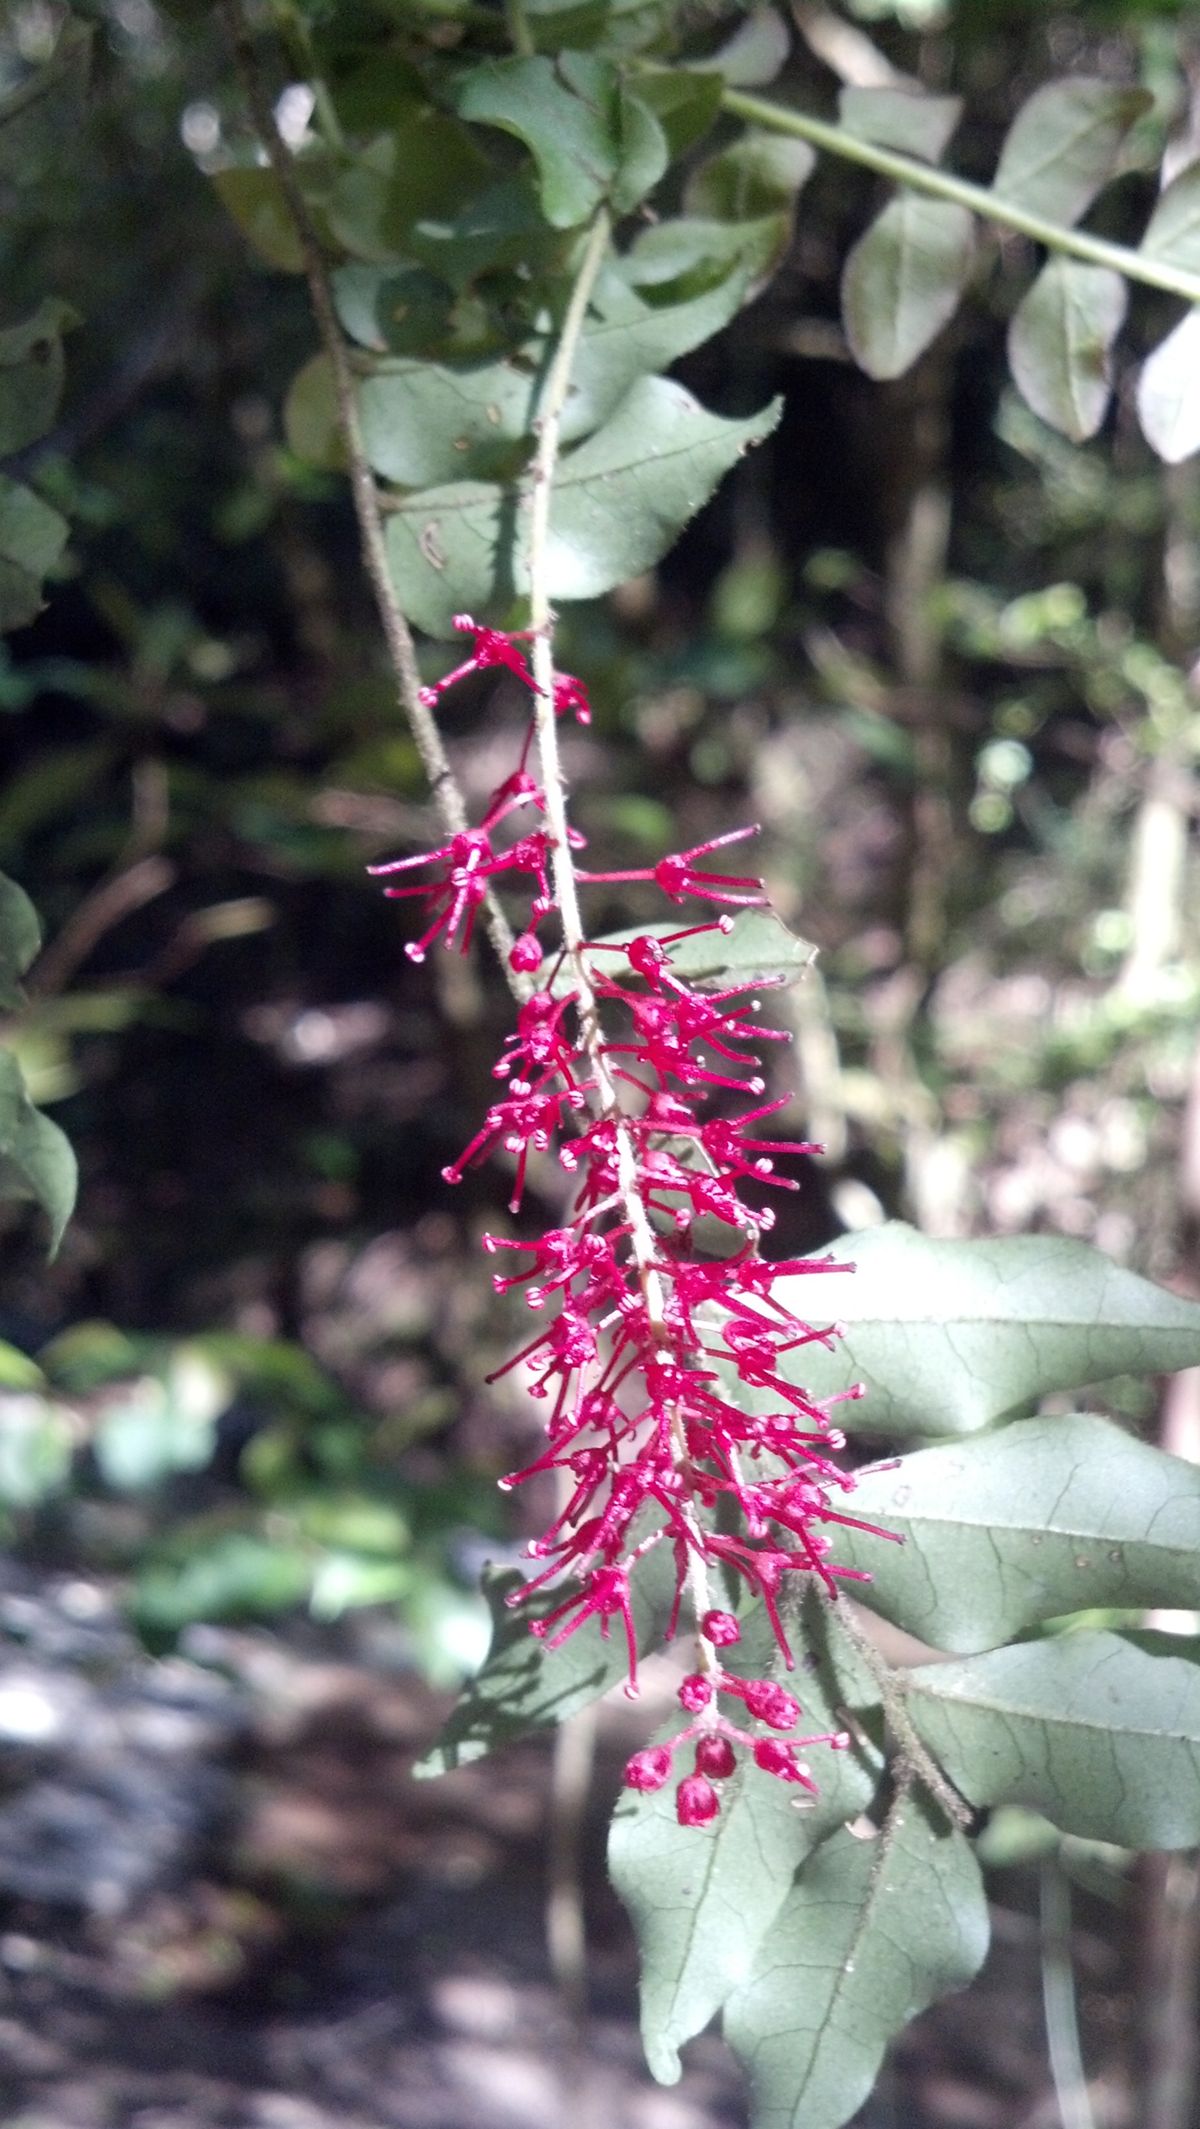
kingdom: Plantae
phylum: Tracheophyta
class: Magnoliopsida
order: Picramniales
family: Picramniaceae
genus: Picramnia
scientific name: Picramnia
